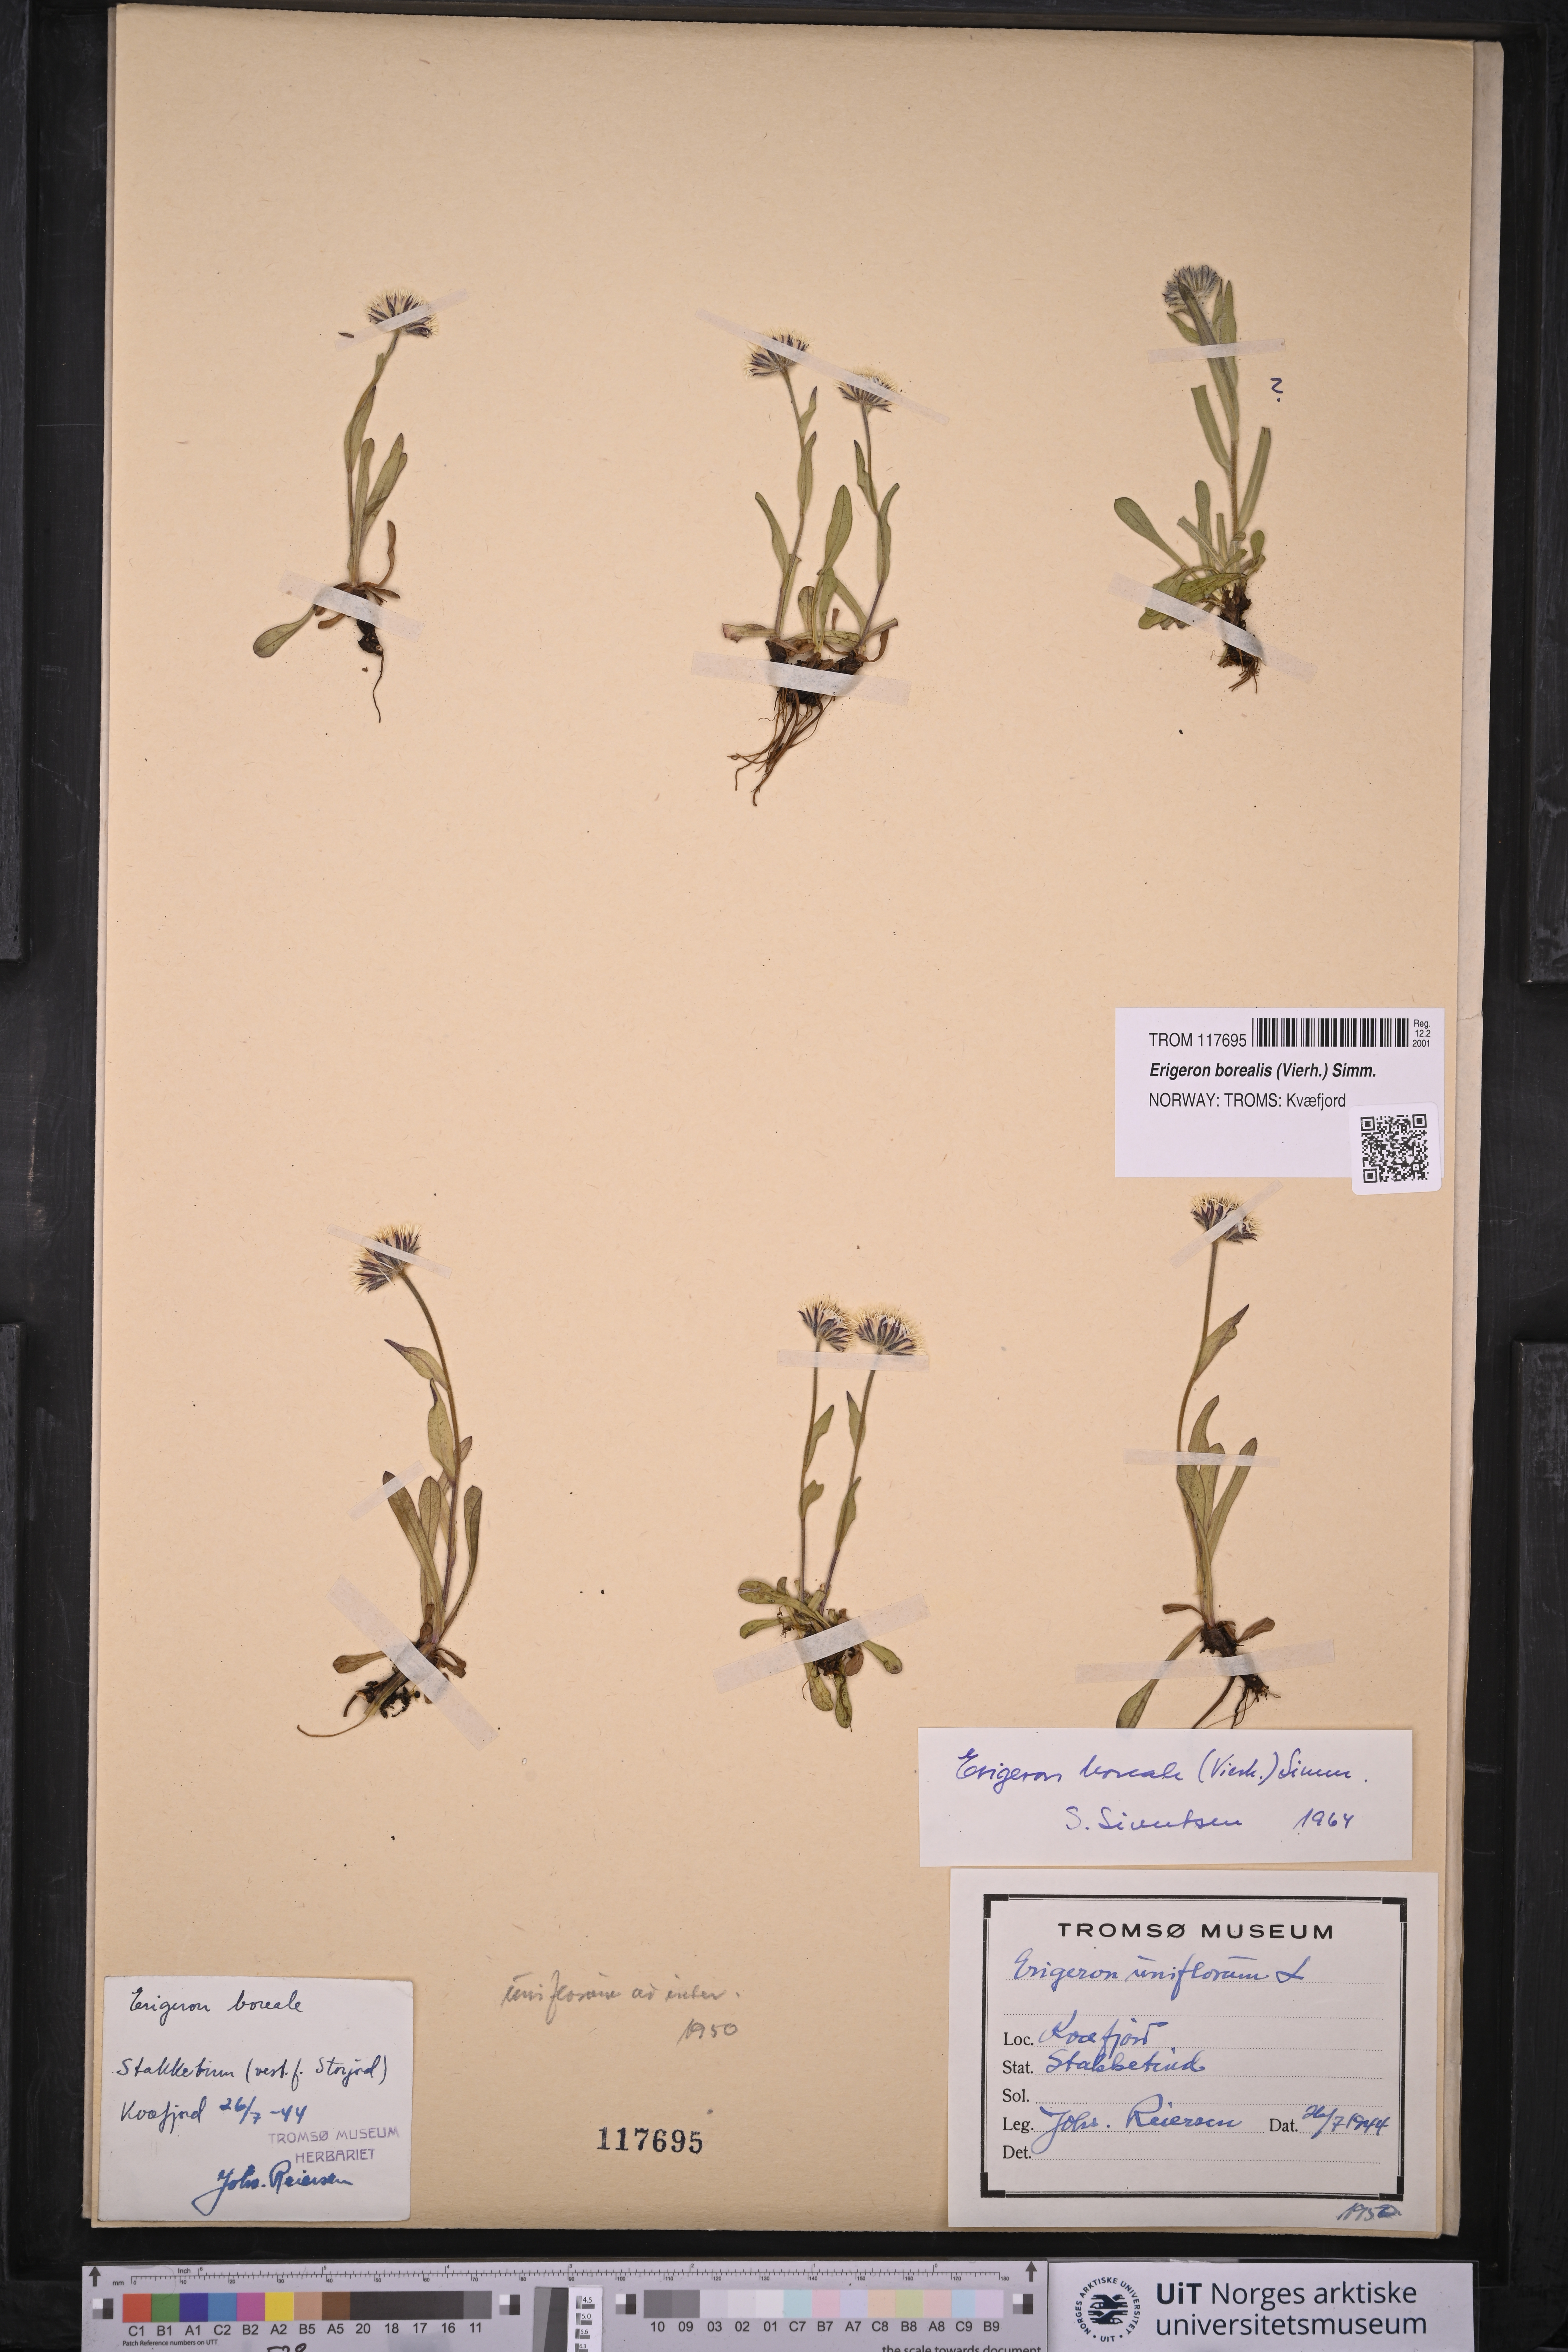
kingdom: Plantae
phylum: Tracheophyta
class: Magnoliopsida
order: Asterales
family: Asteraceae
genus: Erigeron
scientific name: Erigeron borealis
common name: Alpine fleabane
